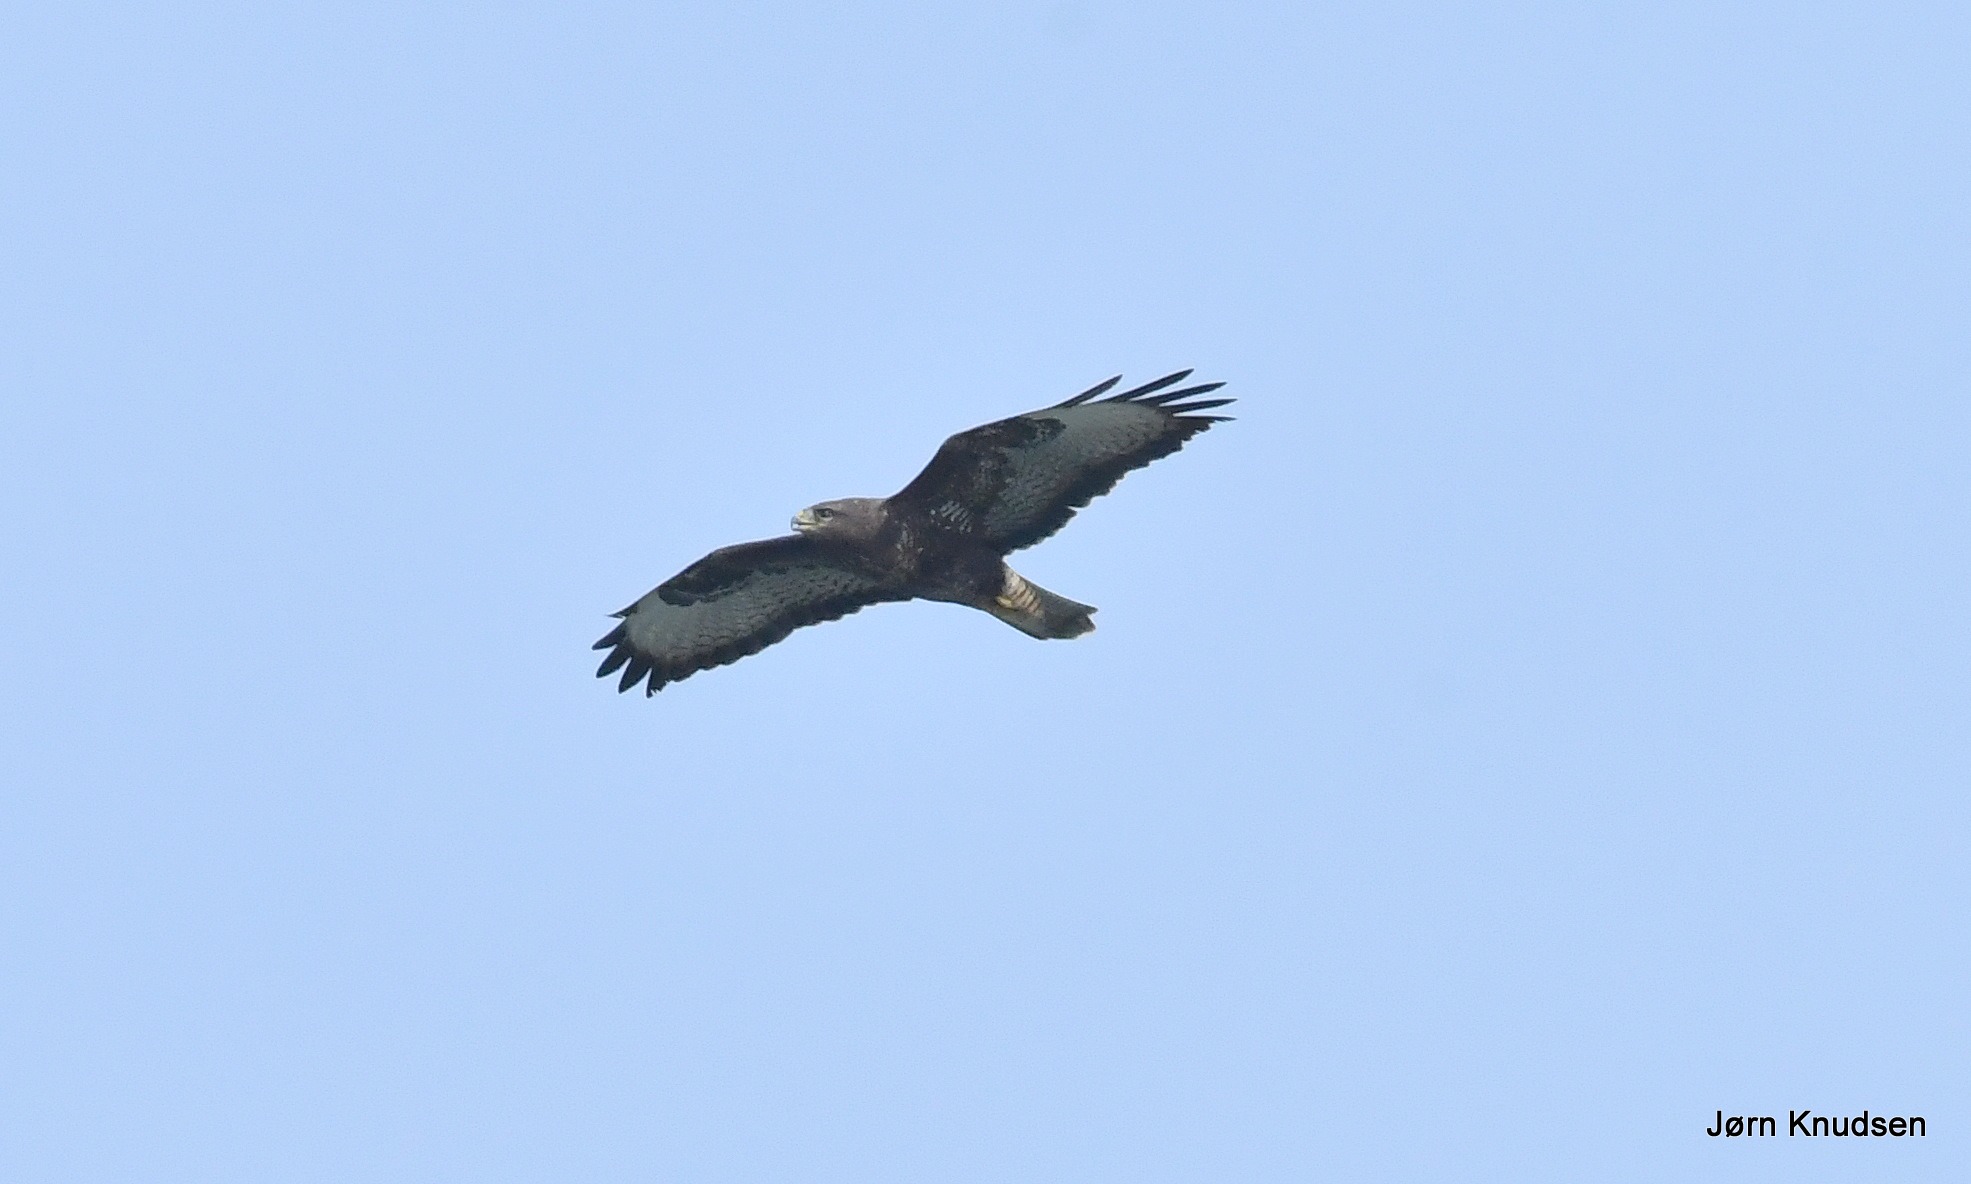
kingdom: Animalia
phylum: Chordata
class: Aves
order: Accipitriformes
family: Accipitridae
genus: Buteo
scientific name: Buteo buteo
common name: Musvåge
